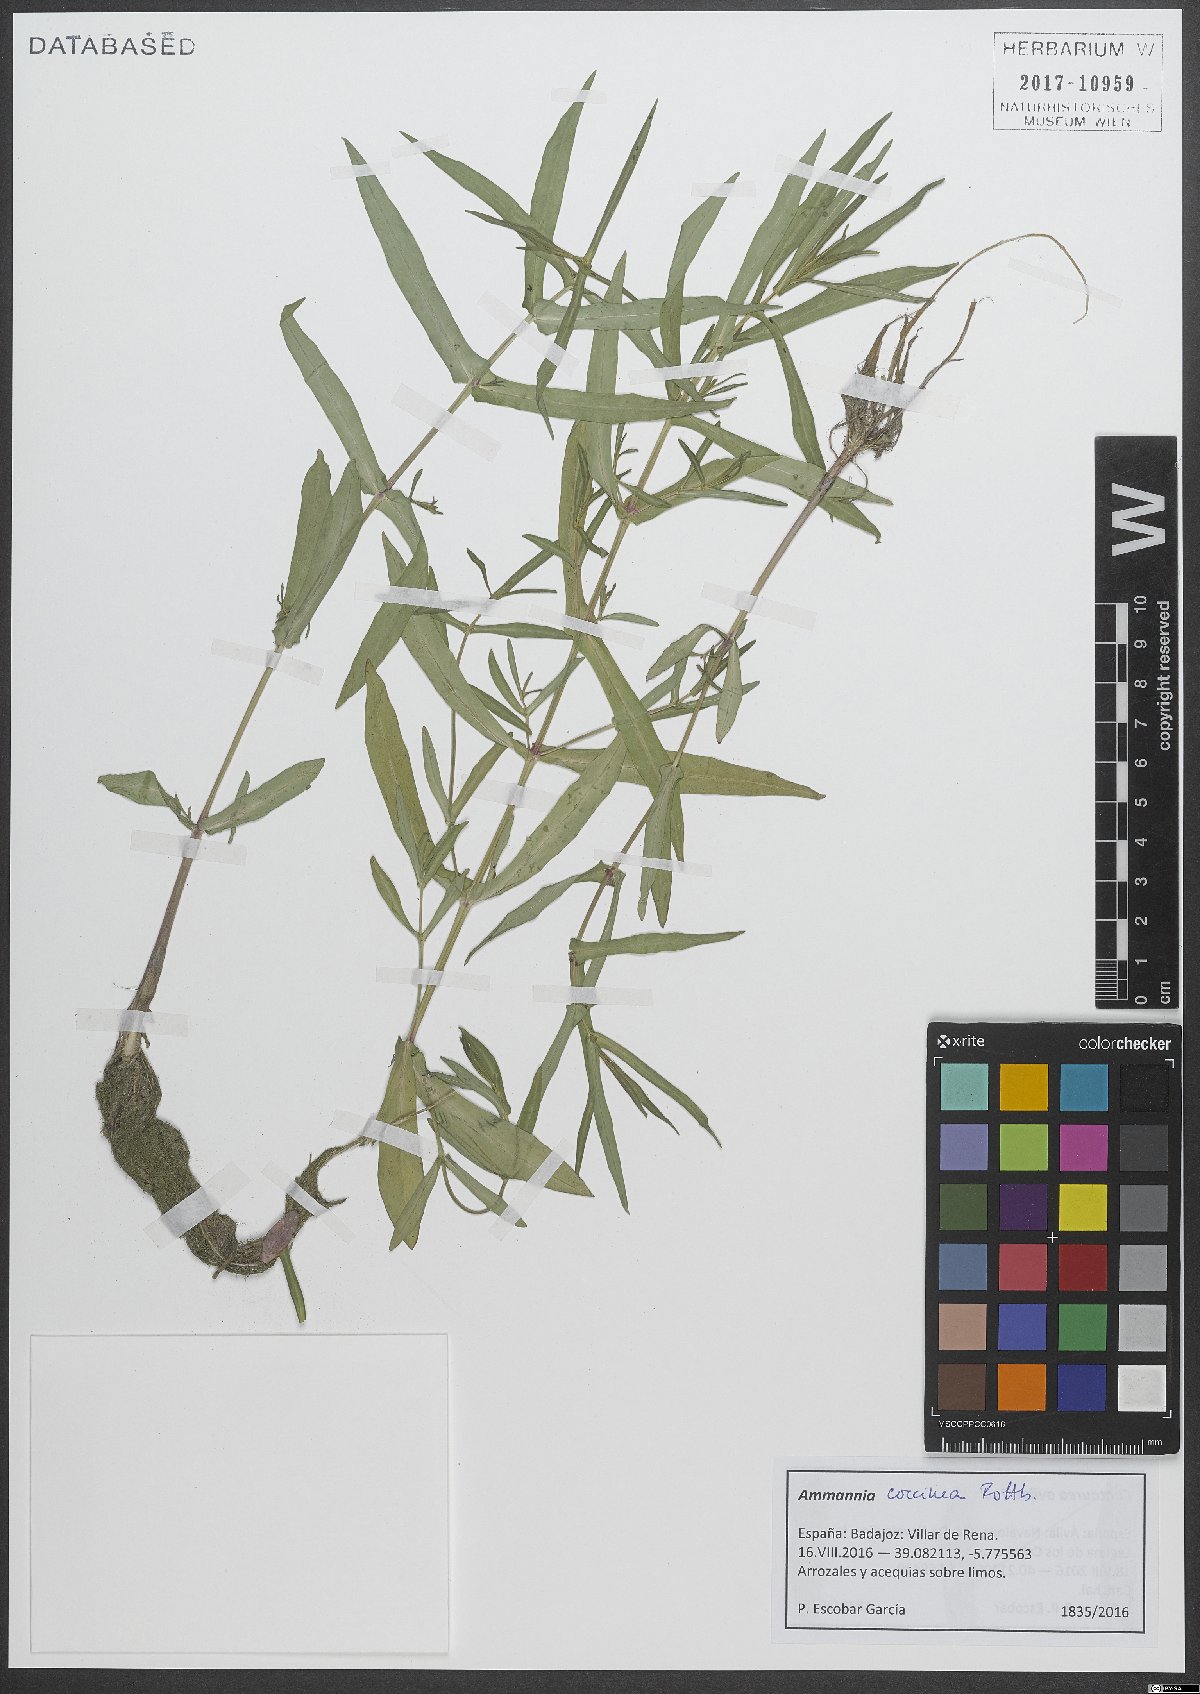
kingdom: Plantae
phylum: Tracheophyta
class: Magnoliopsida
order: Myrtales
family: Lythraceae
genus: Ammannia
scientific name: Ammannia coccinea
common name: Valley redstem
